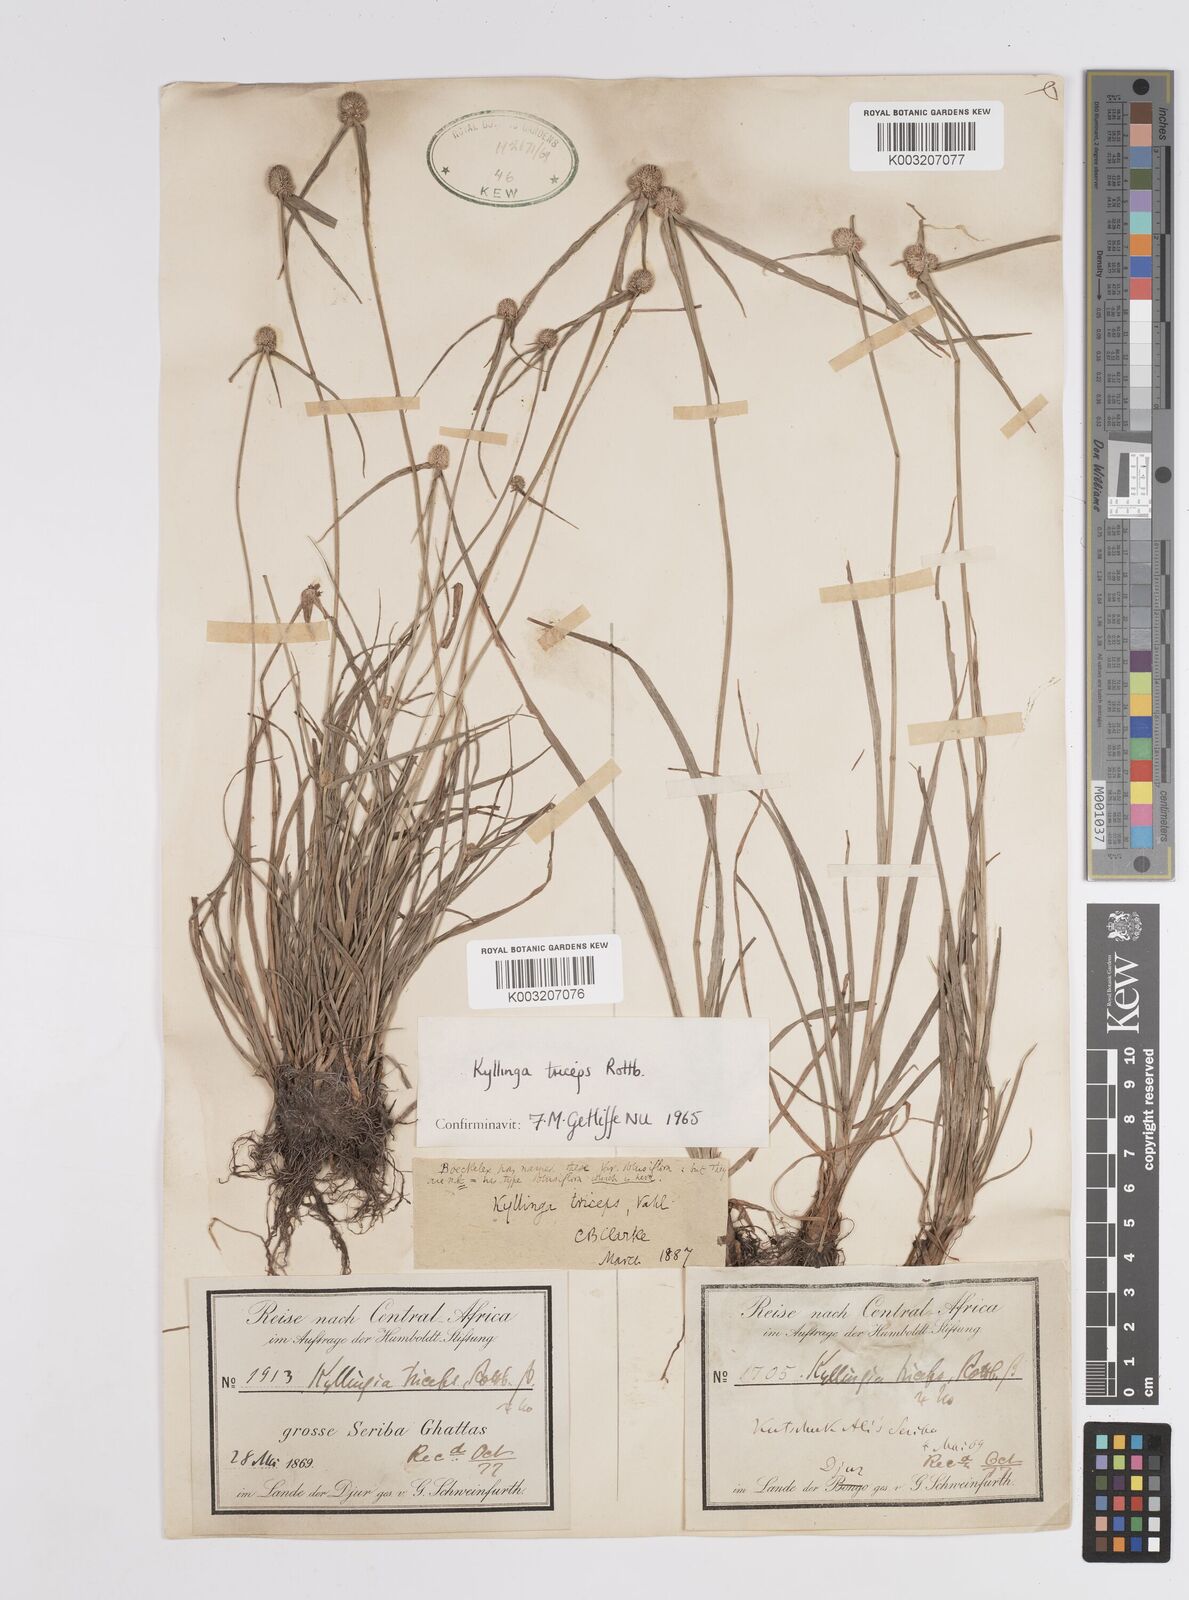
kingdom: Plantae
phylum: Tracheophyta
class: Liliopsida
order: Poales
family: Cyperaceae
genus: Cyperus
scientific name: Cyperus
